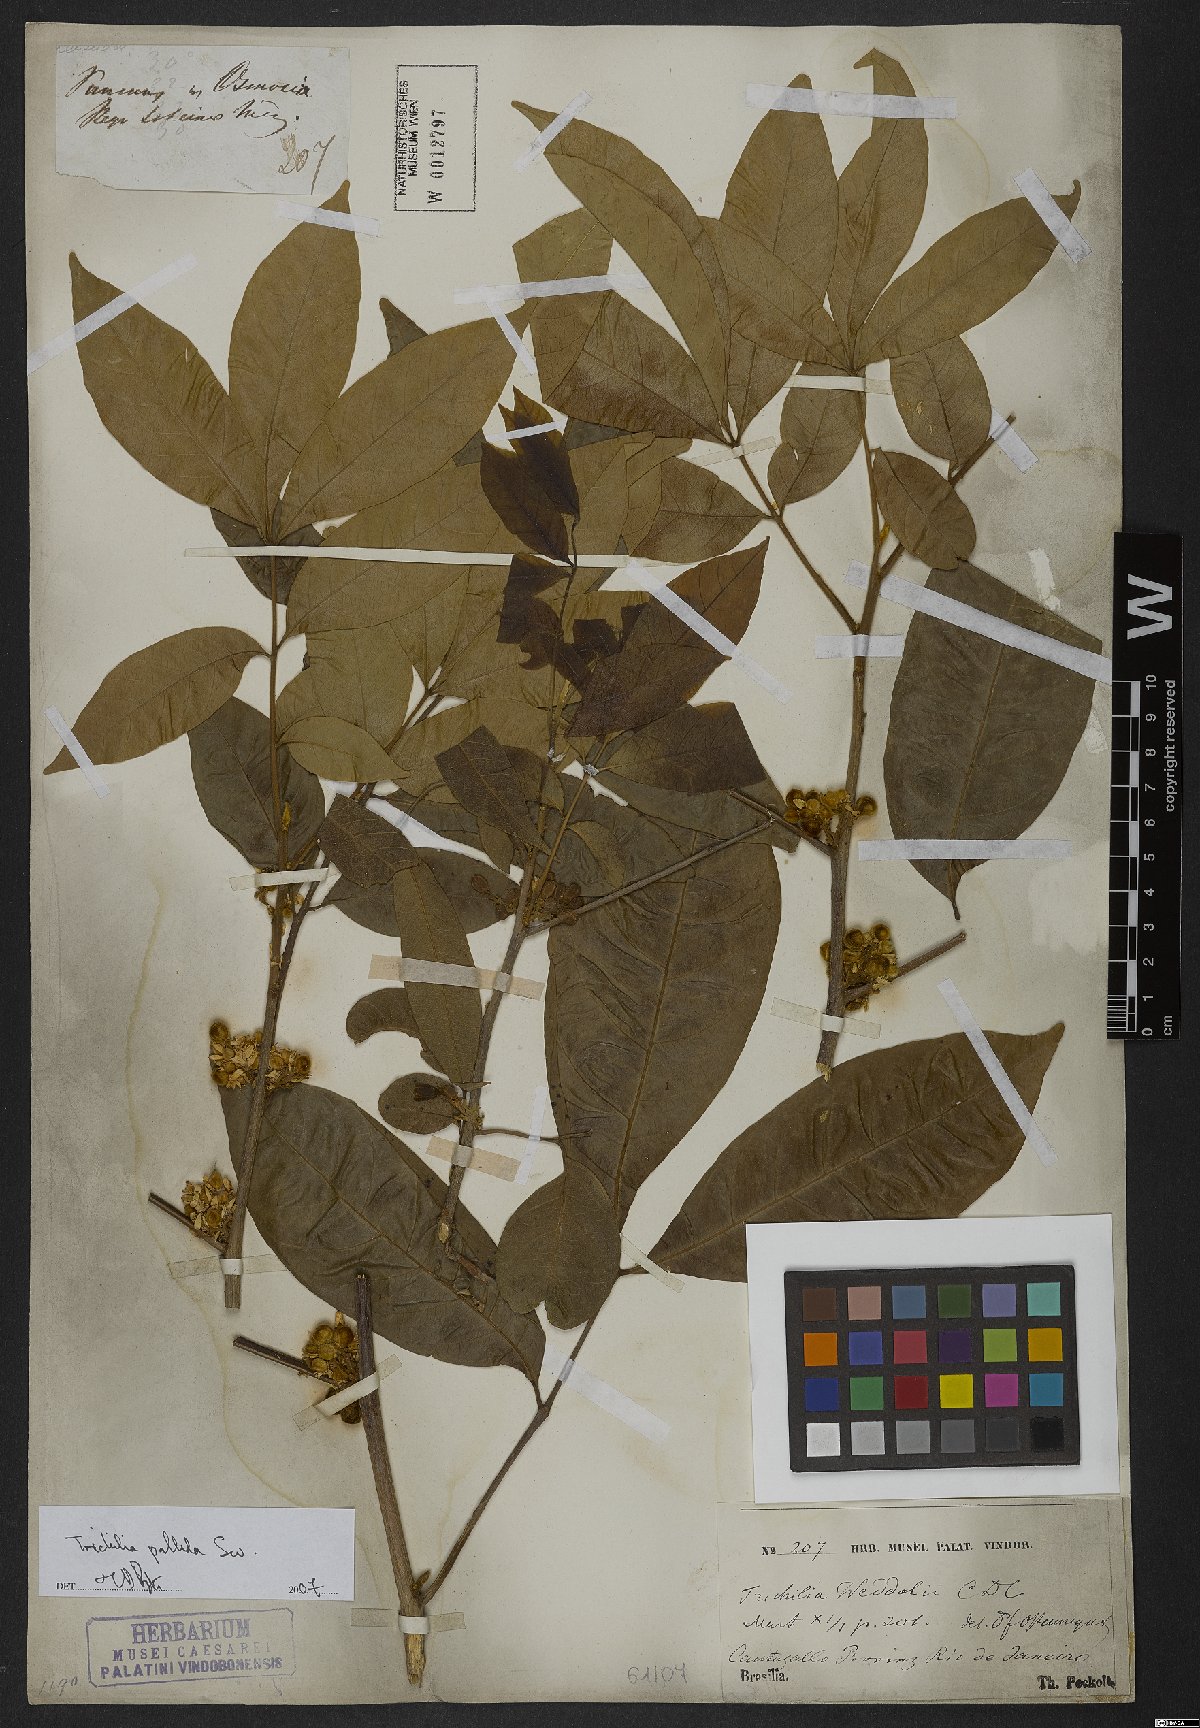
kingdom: Plantae
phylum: Tracheophyta
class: Magnoliopsida
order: Sapindales
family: Meliaceae
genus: Trichilia
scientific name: Trichilia pallida
